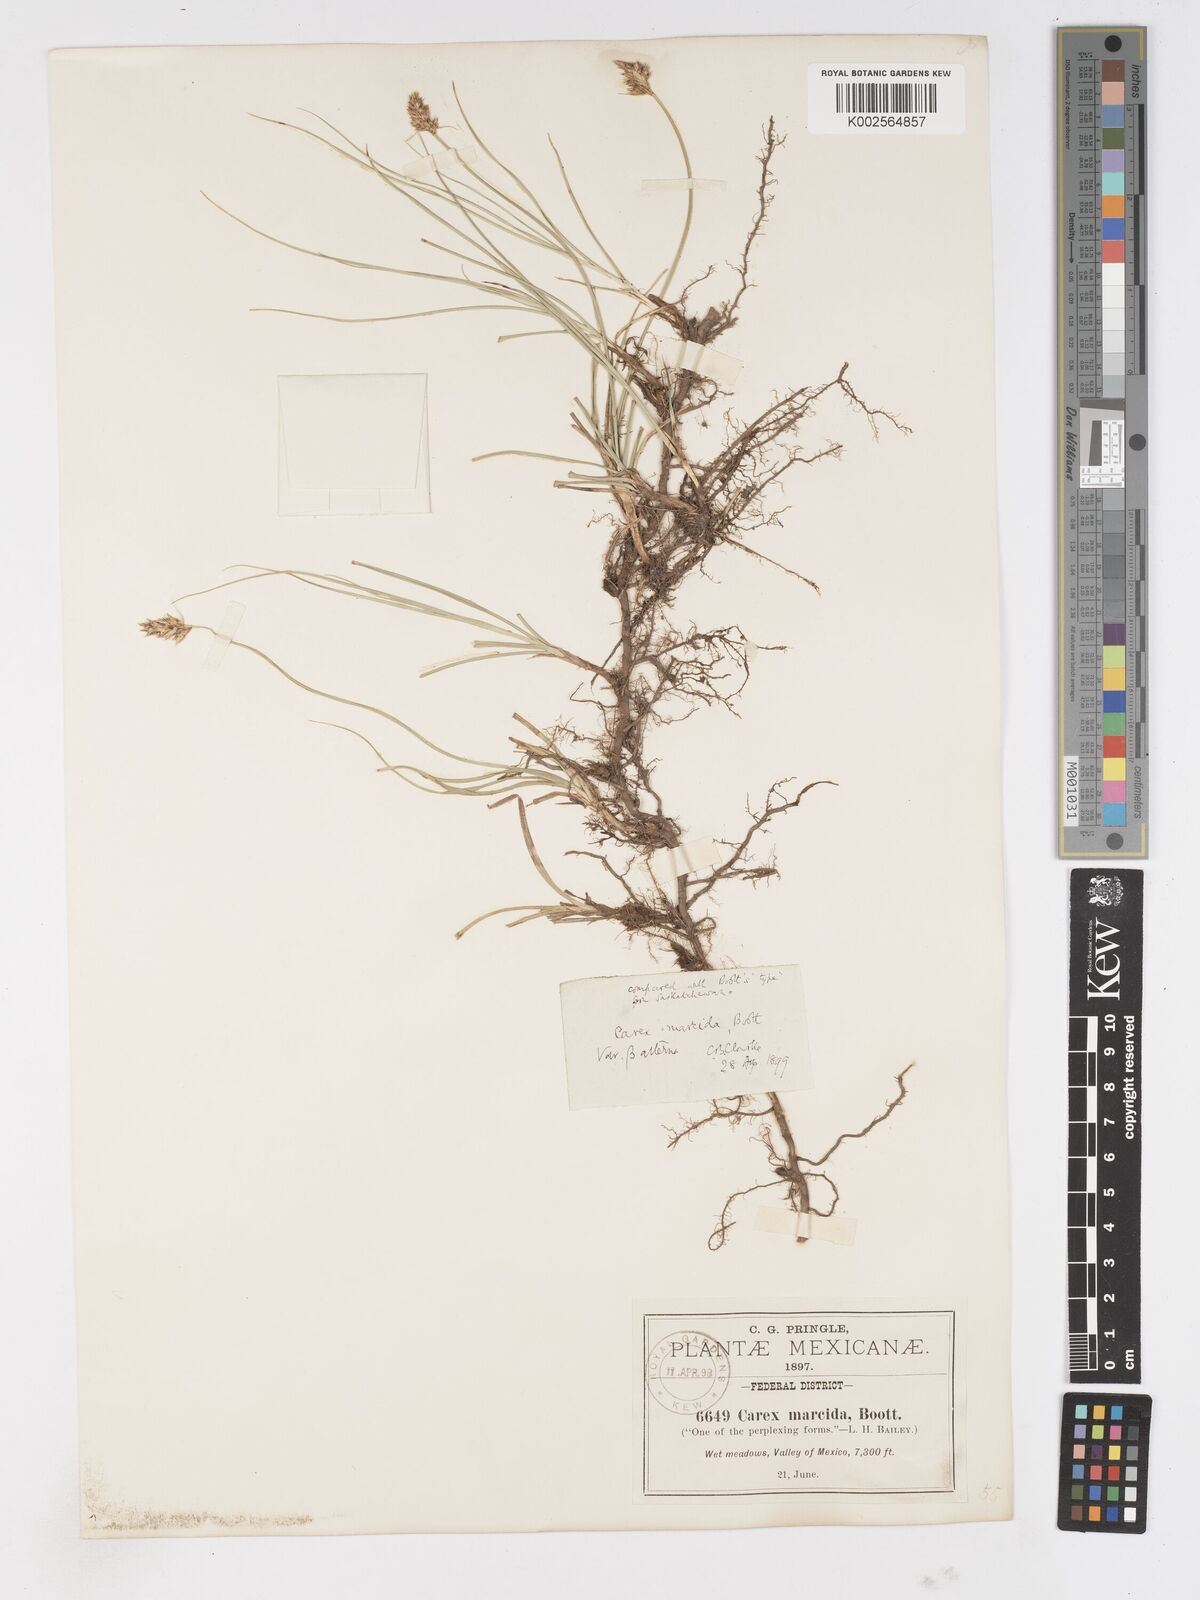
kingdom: Plantae
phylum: Tracheophyta
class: Liliopsida
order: Poales
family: Cyperaceae
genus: Carex
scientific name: Carex praegracilis
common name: Black creeper sedge
